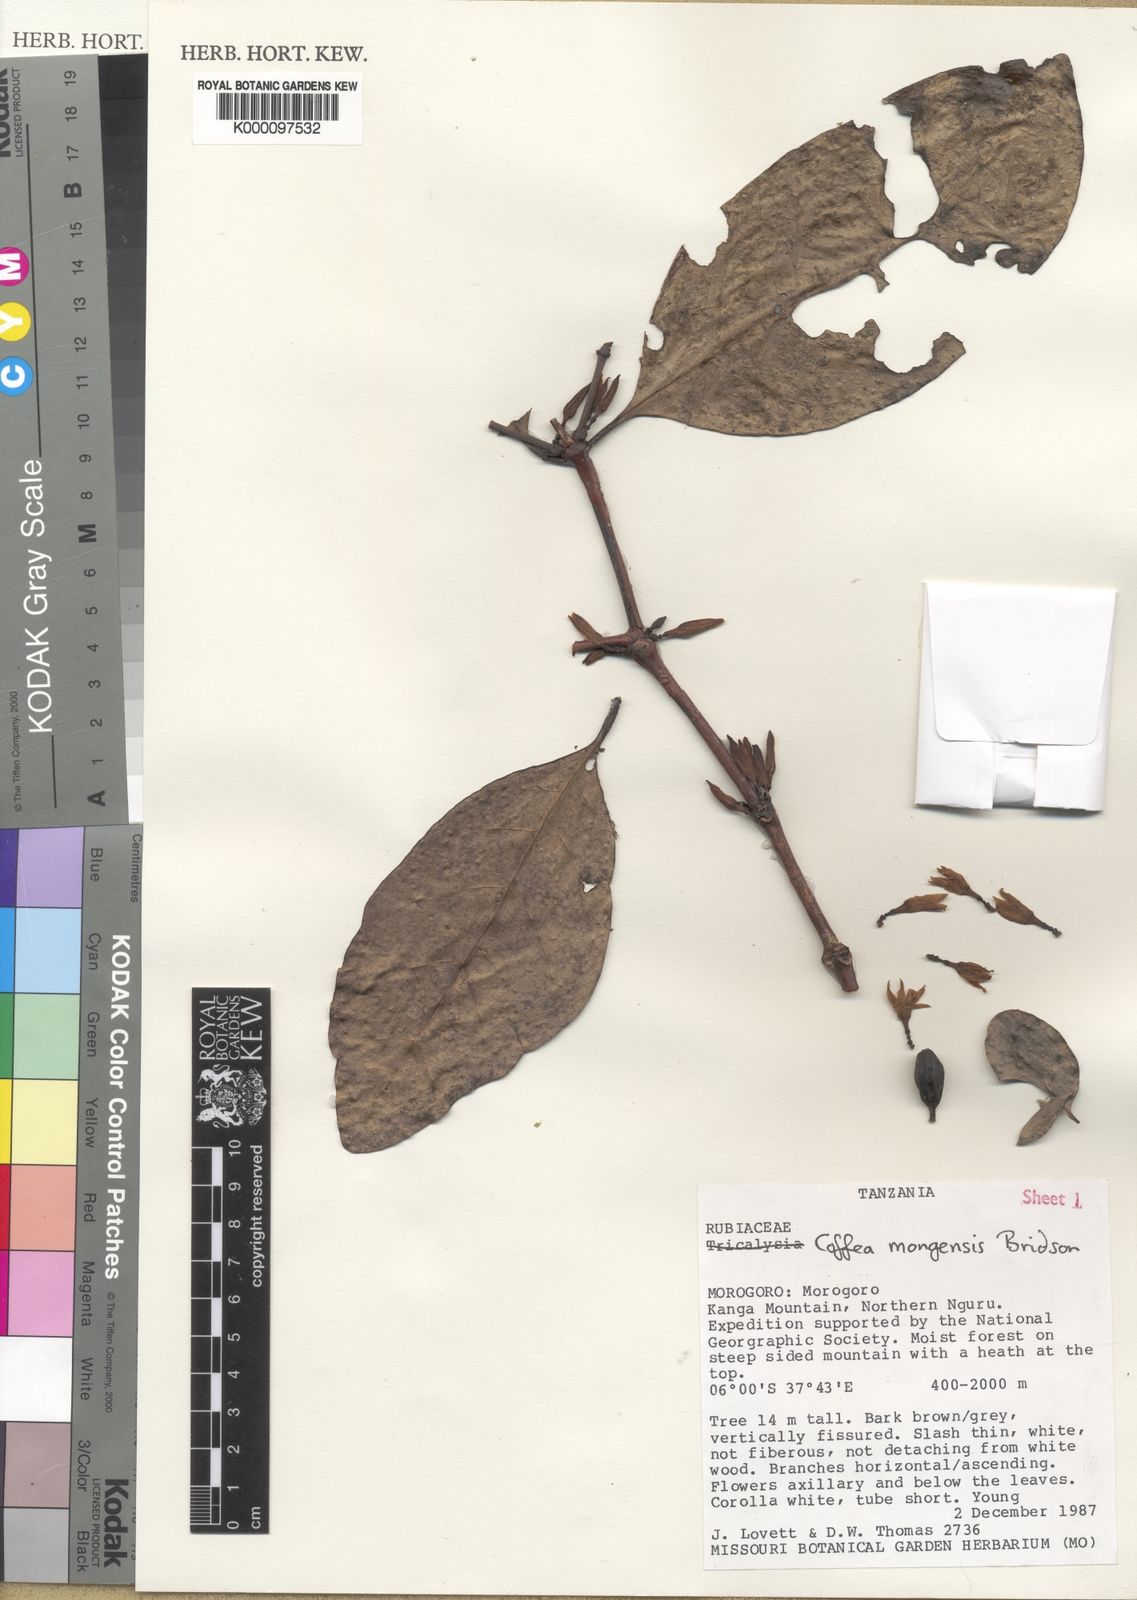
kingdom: Plantae
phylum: Tracheophyta
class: Magnoliopsida
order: Gentianales
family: Rubiaceae
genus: Coffea
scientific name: Coffea mongensis
